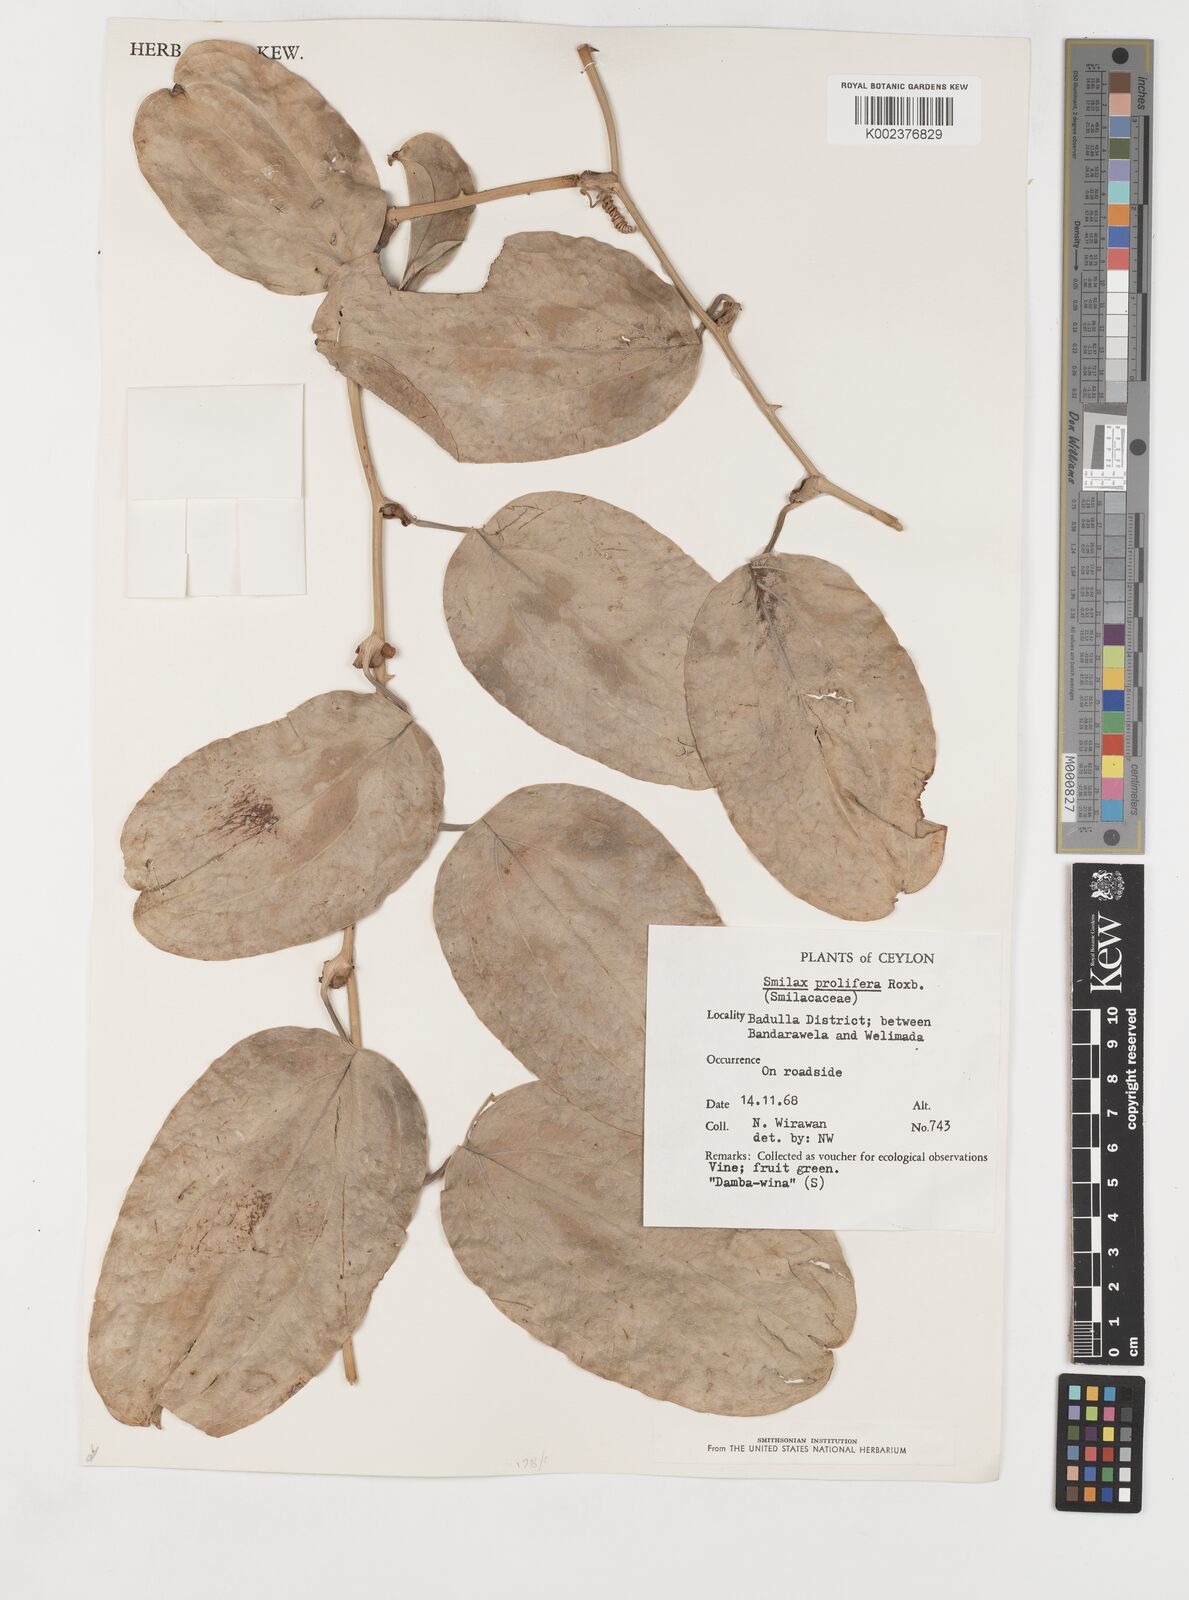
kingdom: Plantae
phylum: Tracheophyta
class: Liliopsida
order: Liliales
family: Smilacaceae
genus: Smilax
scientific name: Smilax prolifera
